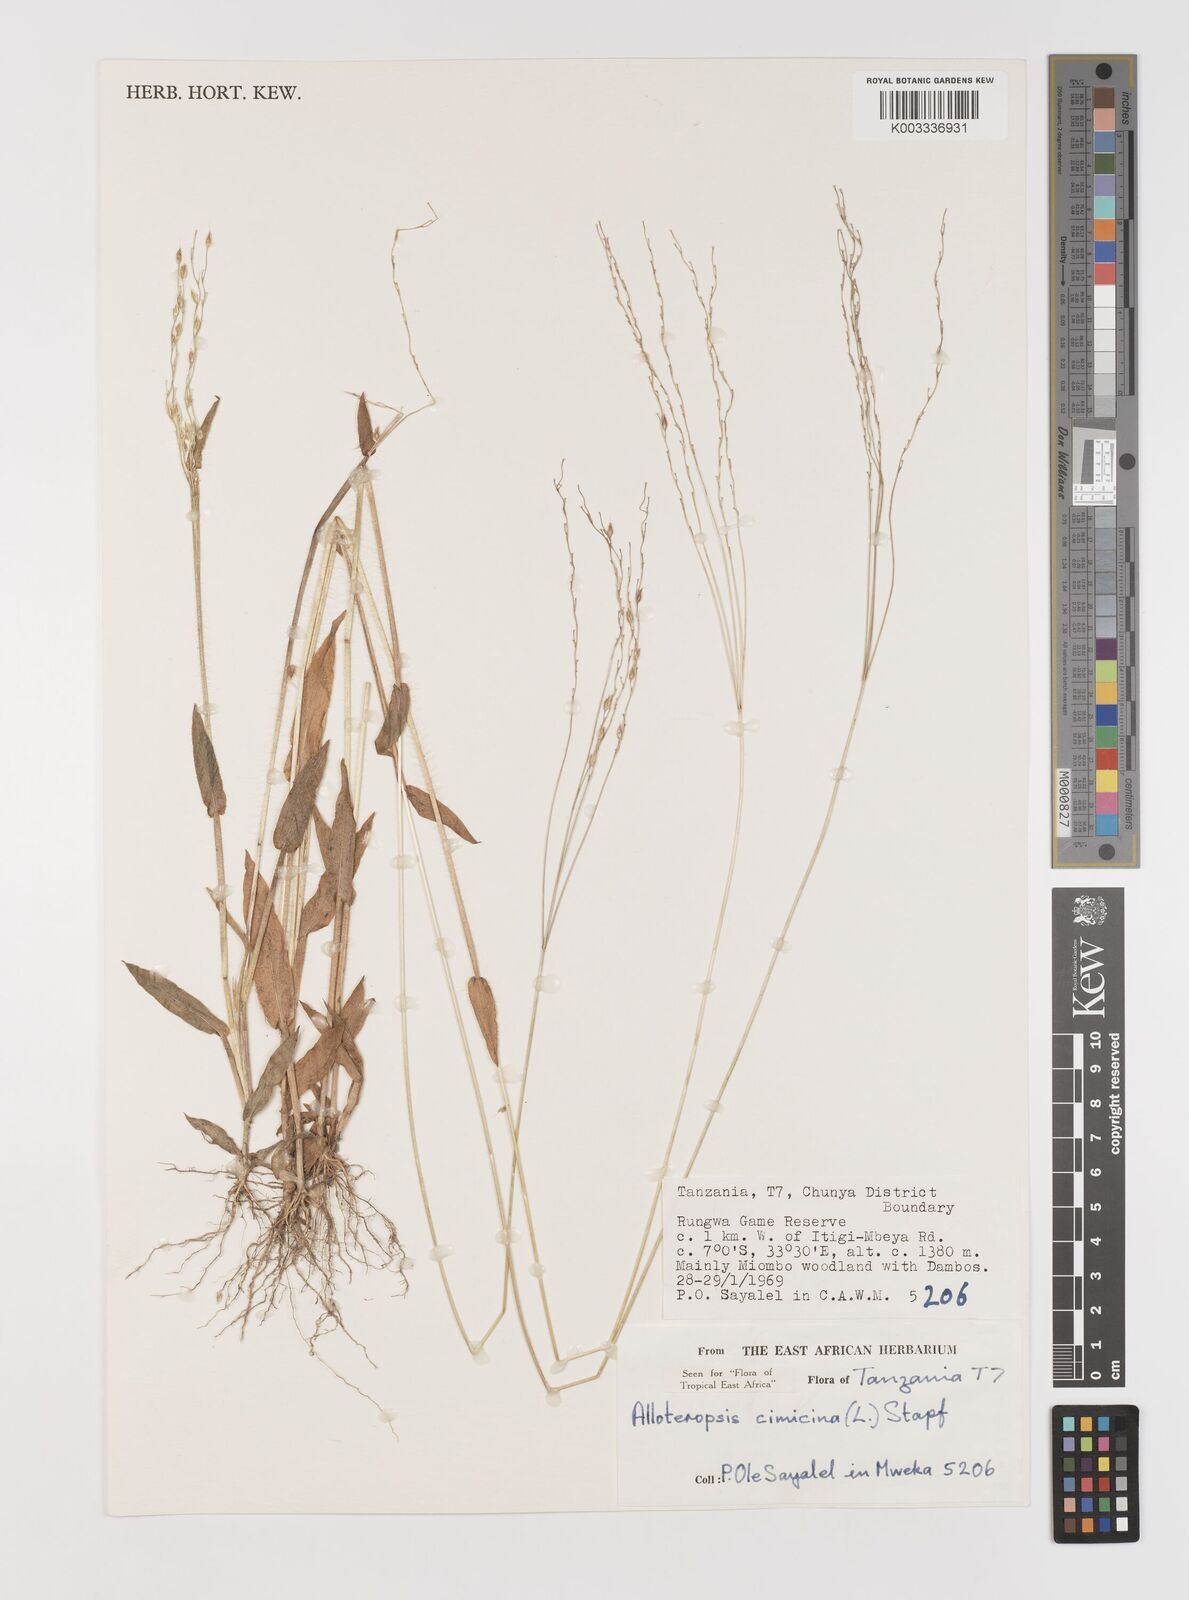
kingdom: Plantae
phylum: Tracheophyta
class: Liliopsida
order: Poales
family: Poaceae
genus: Alloteropsis
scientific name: Alloteropsis cimicina
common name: Summergrass
